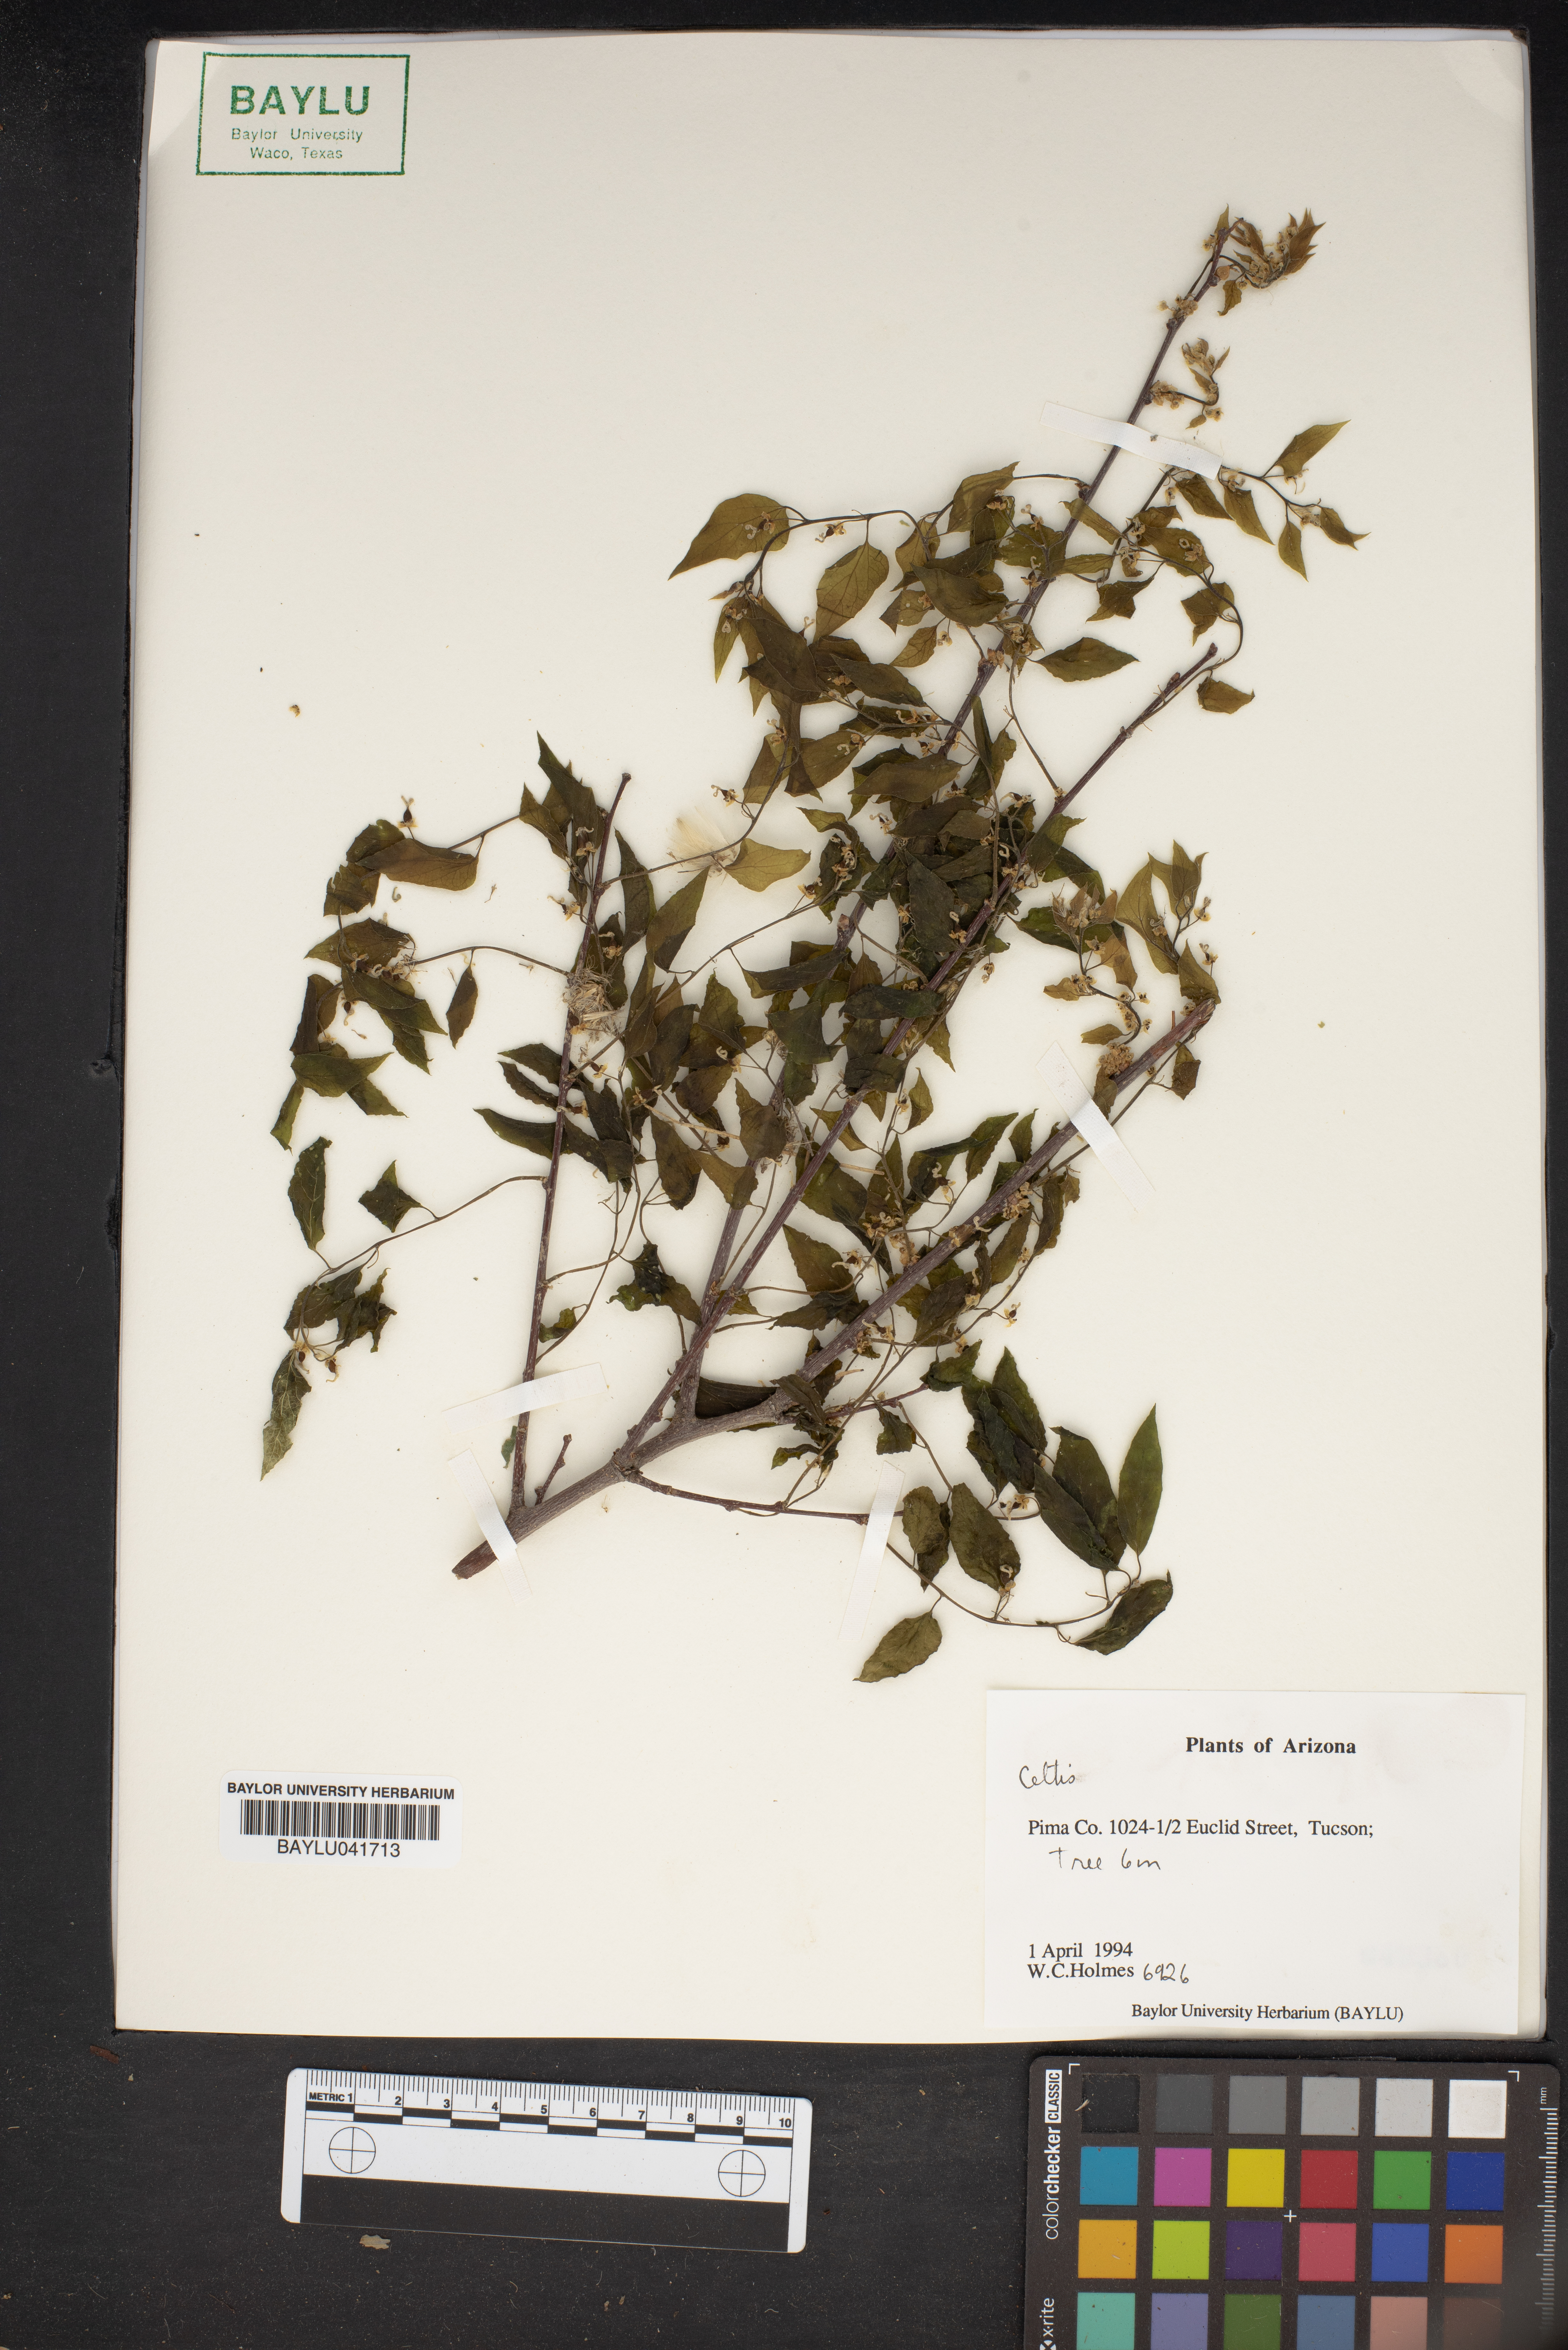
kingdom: Plantae
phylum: Tracheophyta
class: Magnoliopsida
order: Rosales
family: Cannabaceae
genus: Celtis
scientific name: Celtis
